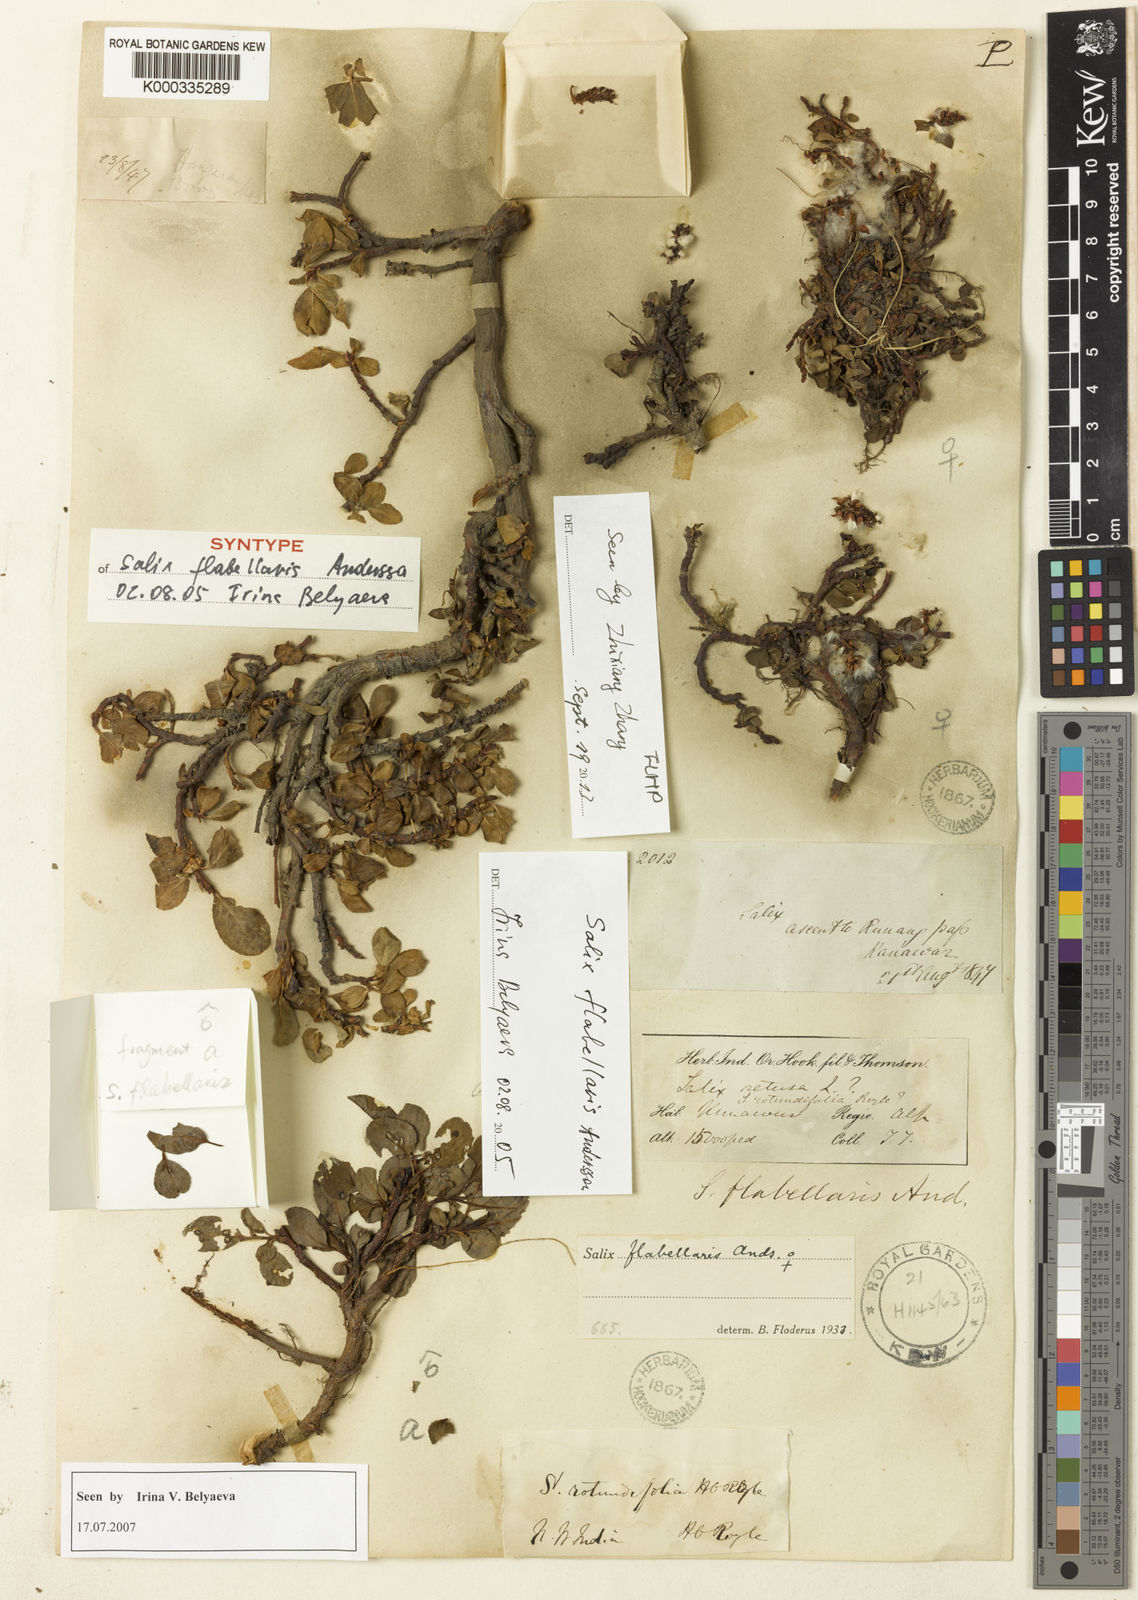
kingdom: Plantae
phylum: Tracheophyta
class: Magnoliopsida
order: Malpighiales
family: Salicaceae
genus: Salix
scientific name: Salix flabellaris
